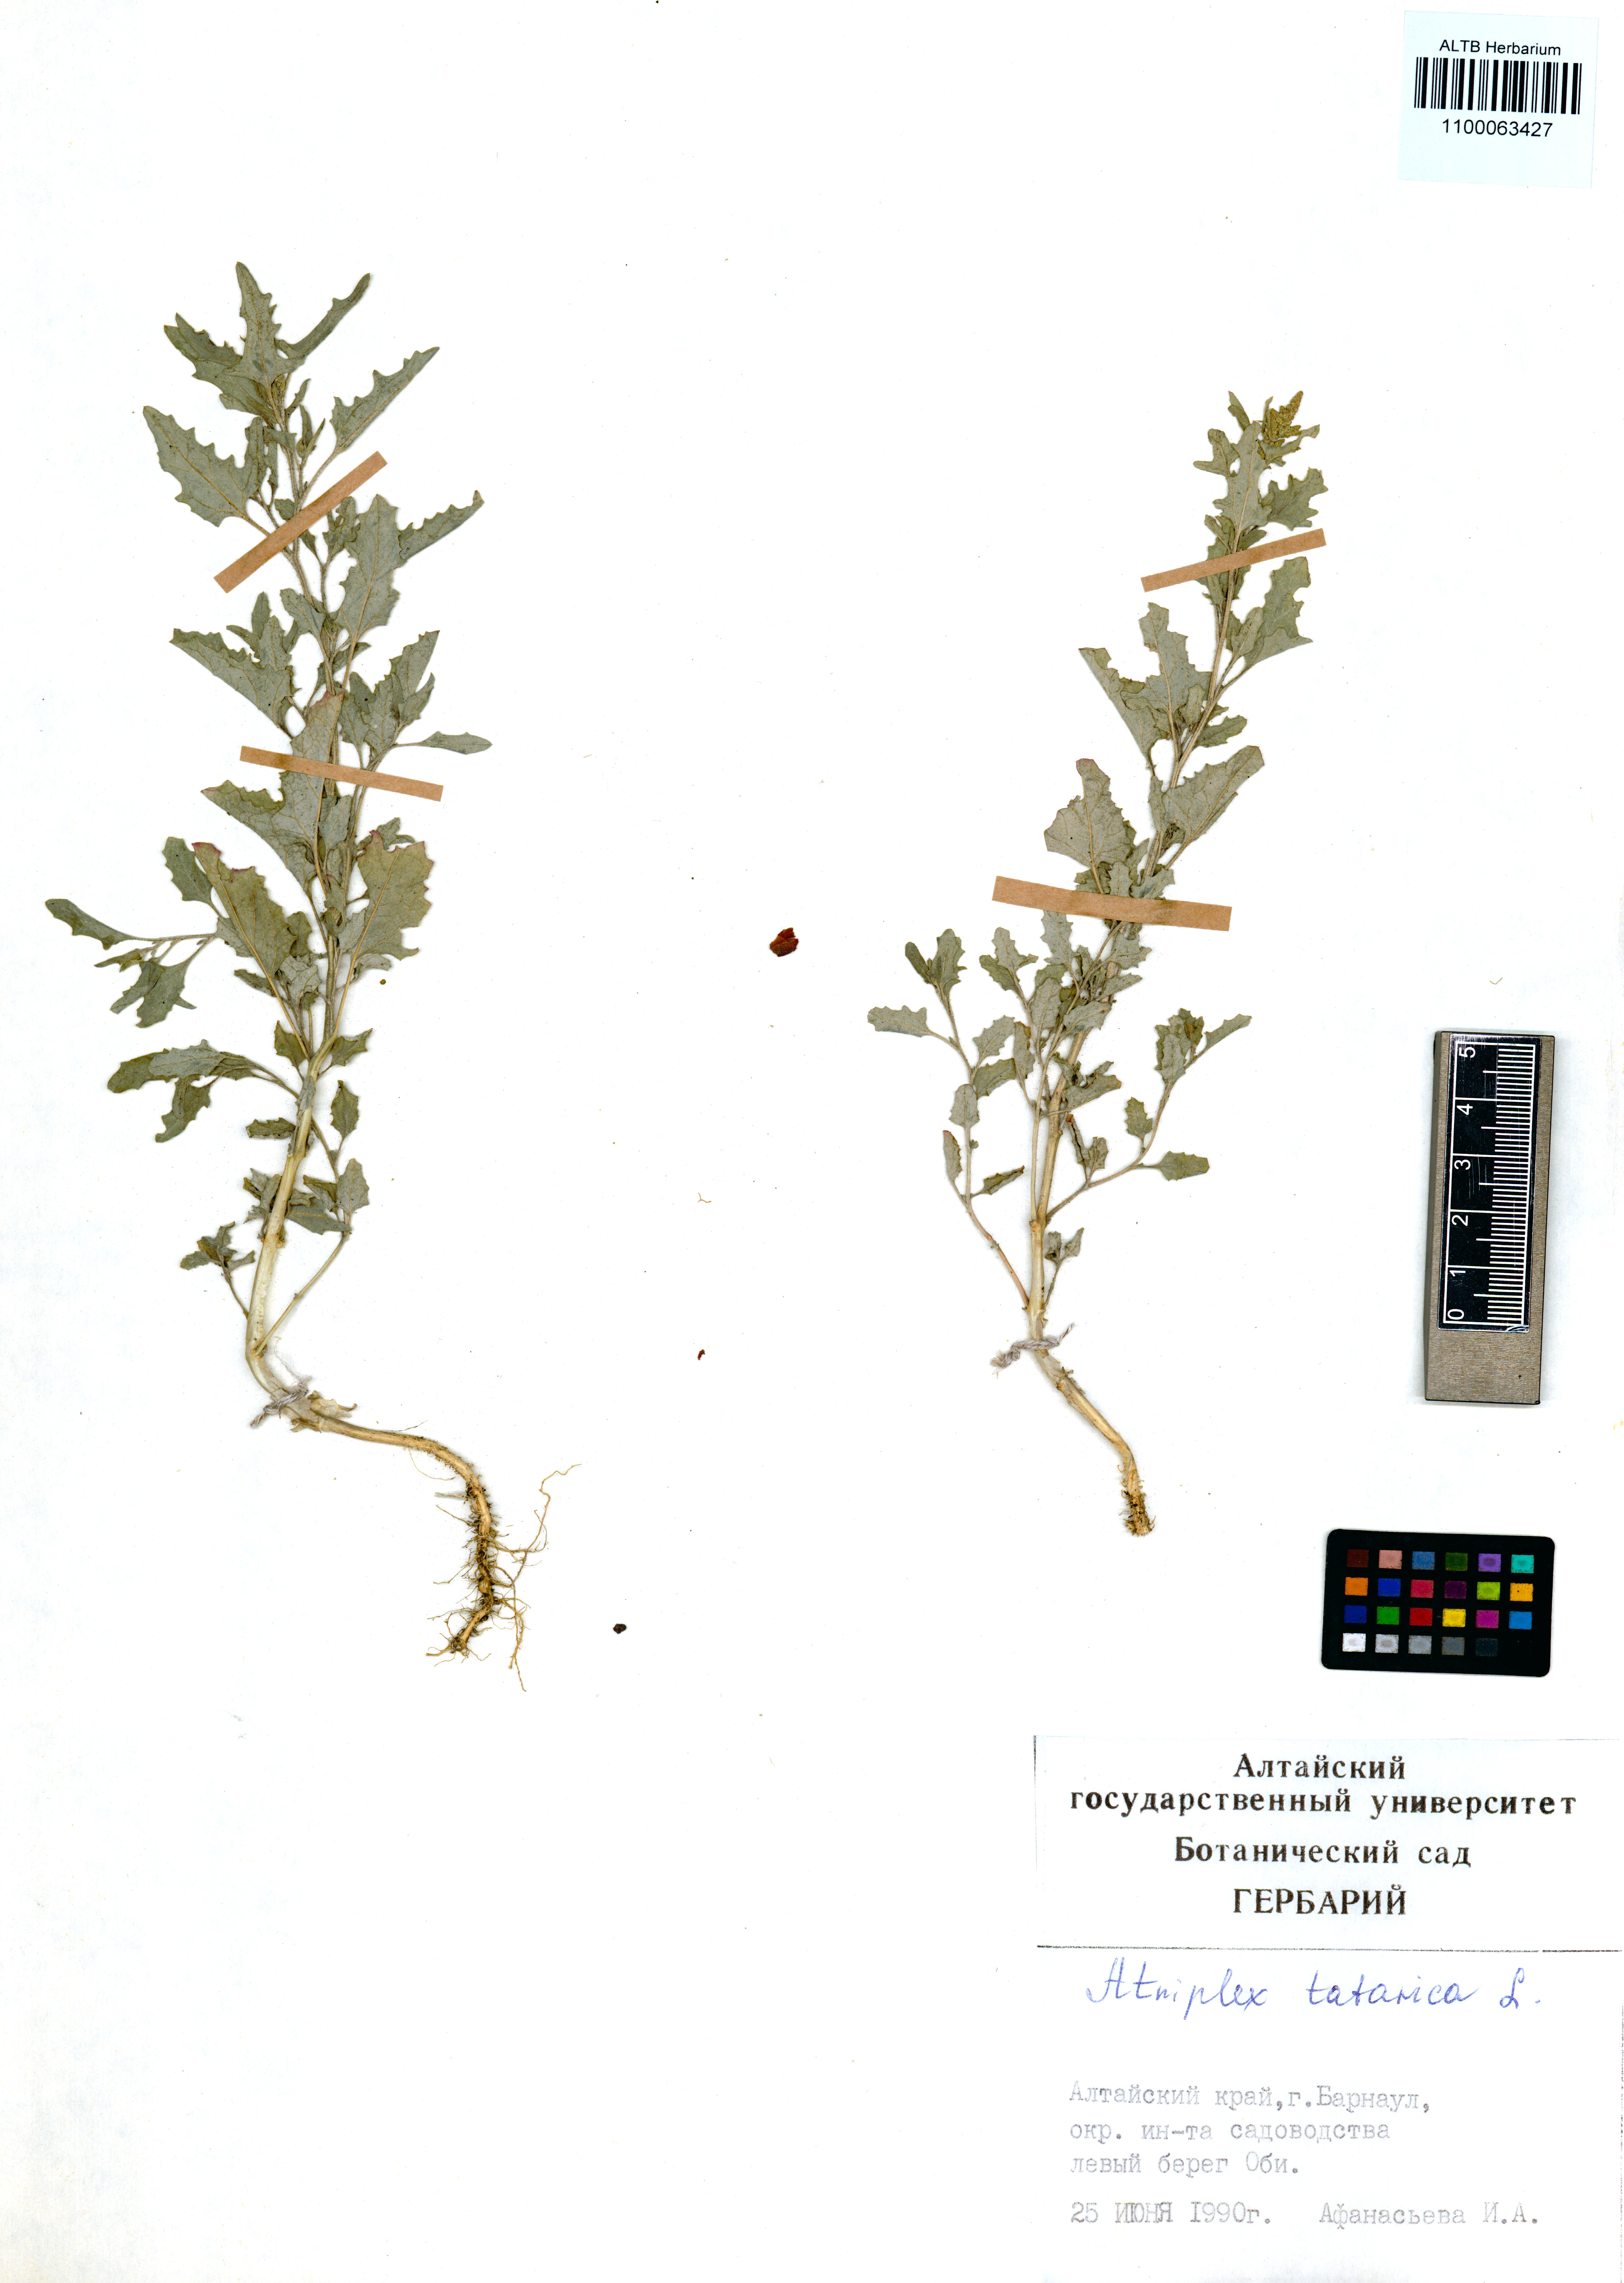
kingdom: Plantae
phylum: Tracheophyta
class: Magnoliopsida
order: Caryophyllales
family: Amaranthaceae
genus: Atriplex
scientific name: Atriplex tatarica
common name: Tatarian orache
